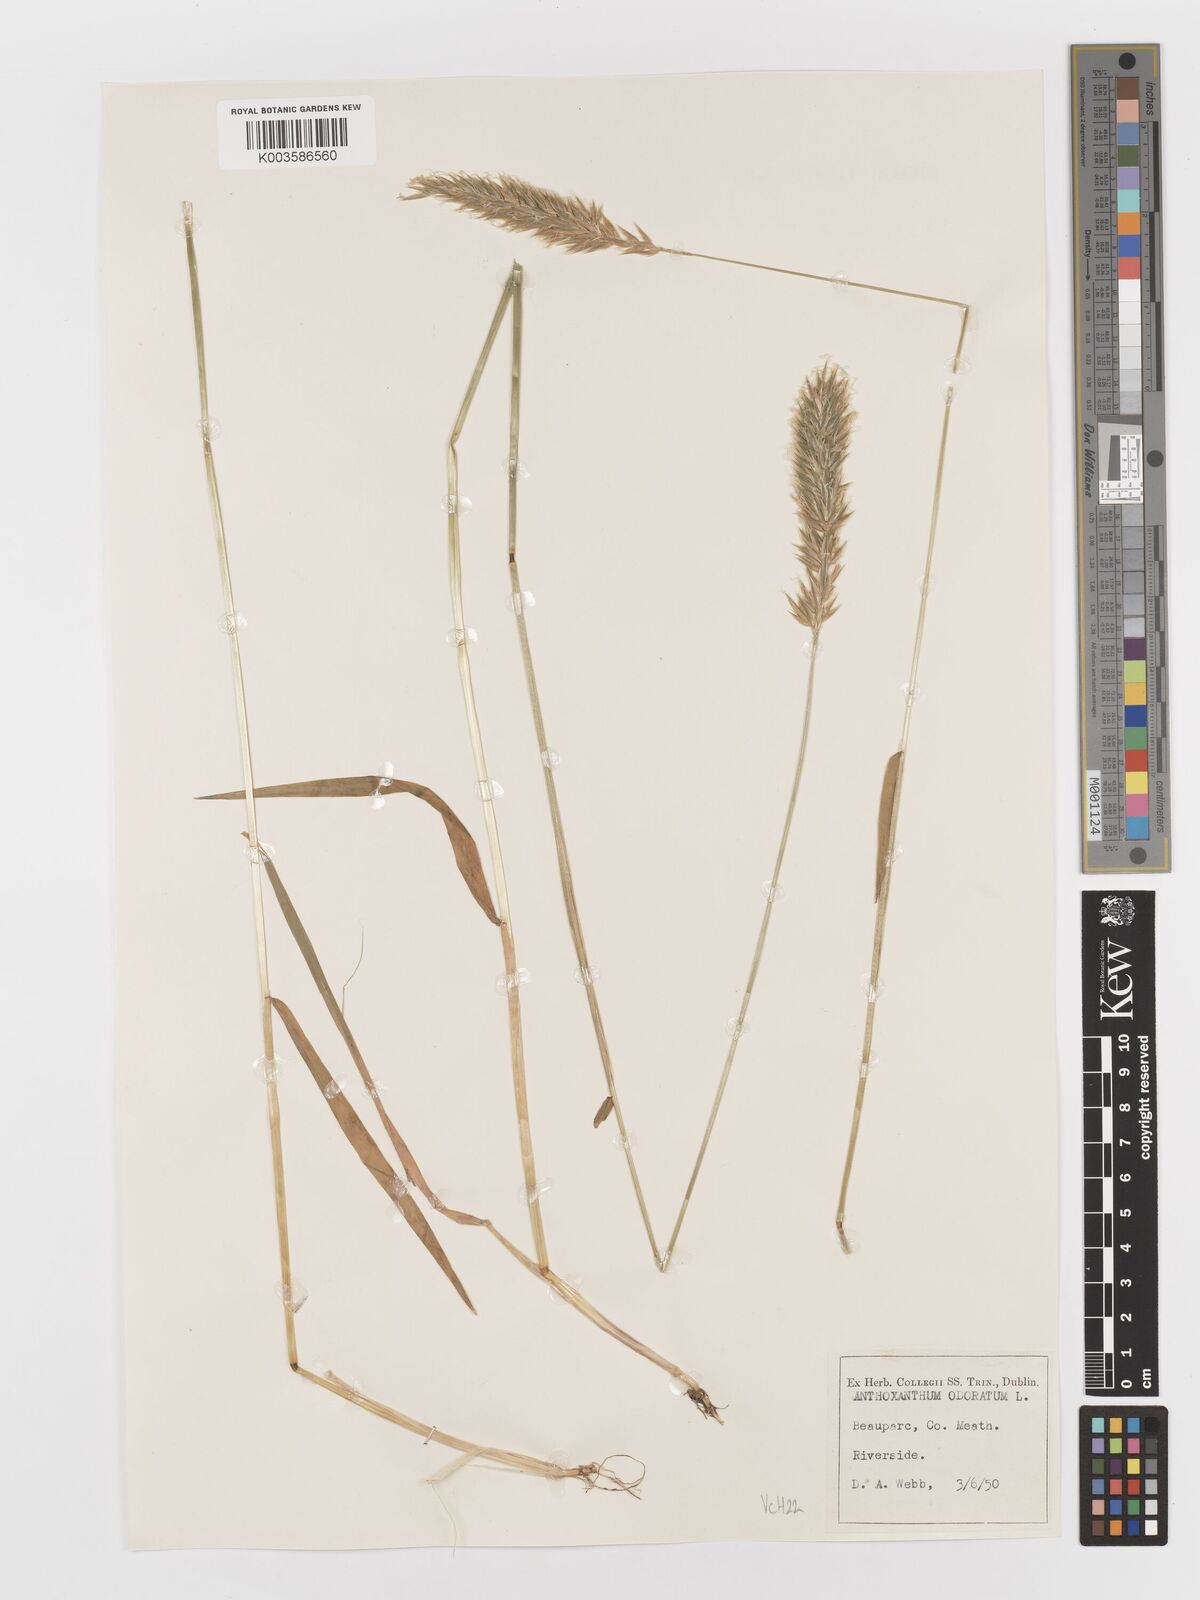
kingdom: Plantae
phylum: Tracheophyta
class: Liliopsida
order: Poales
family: Poaceae
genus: Anthoxanthum
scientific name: Anthoxanthum odoratum
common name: Sweet vernalgrass
